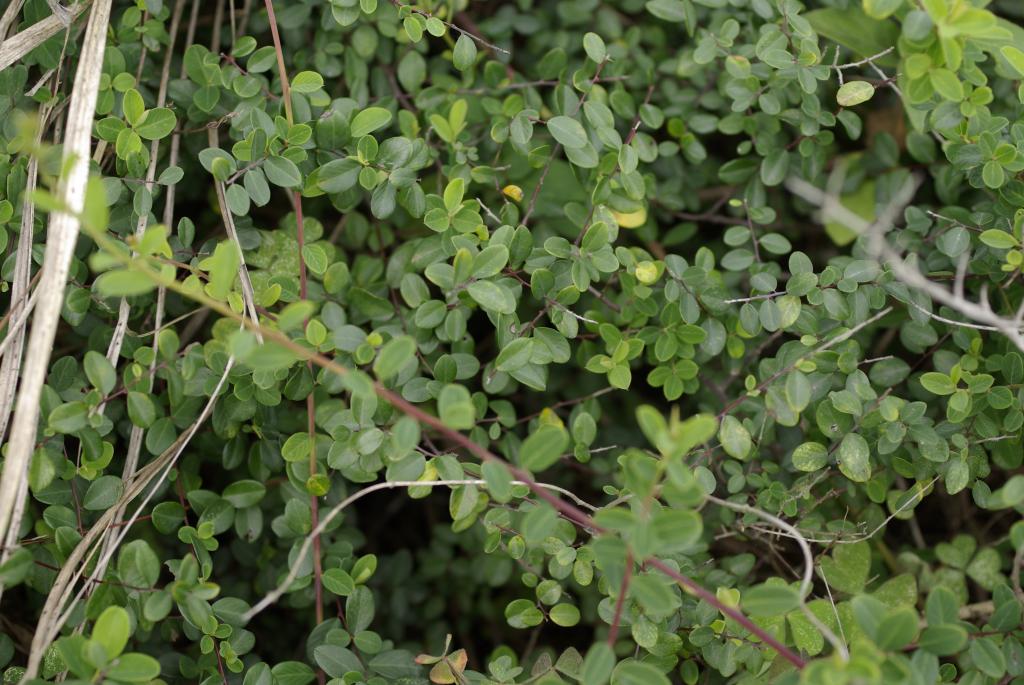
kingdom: Plantae
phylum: Tracheophyta
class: Magnoliopsida
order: Rosales
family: Rhamnaceae
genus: Berchemia
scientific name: Berchemia lineata
